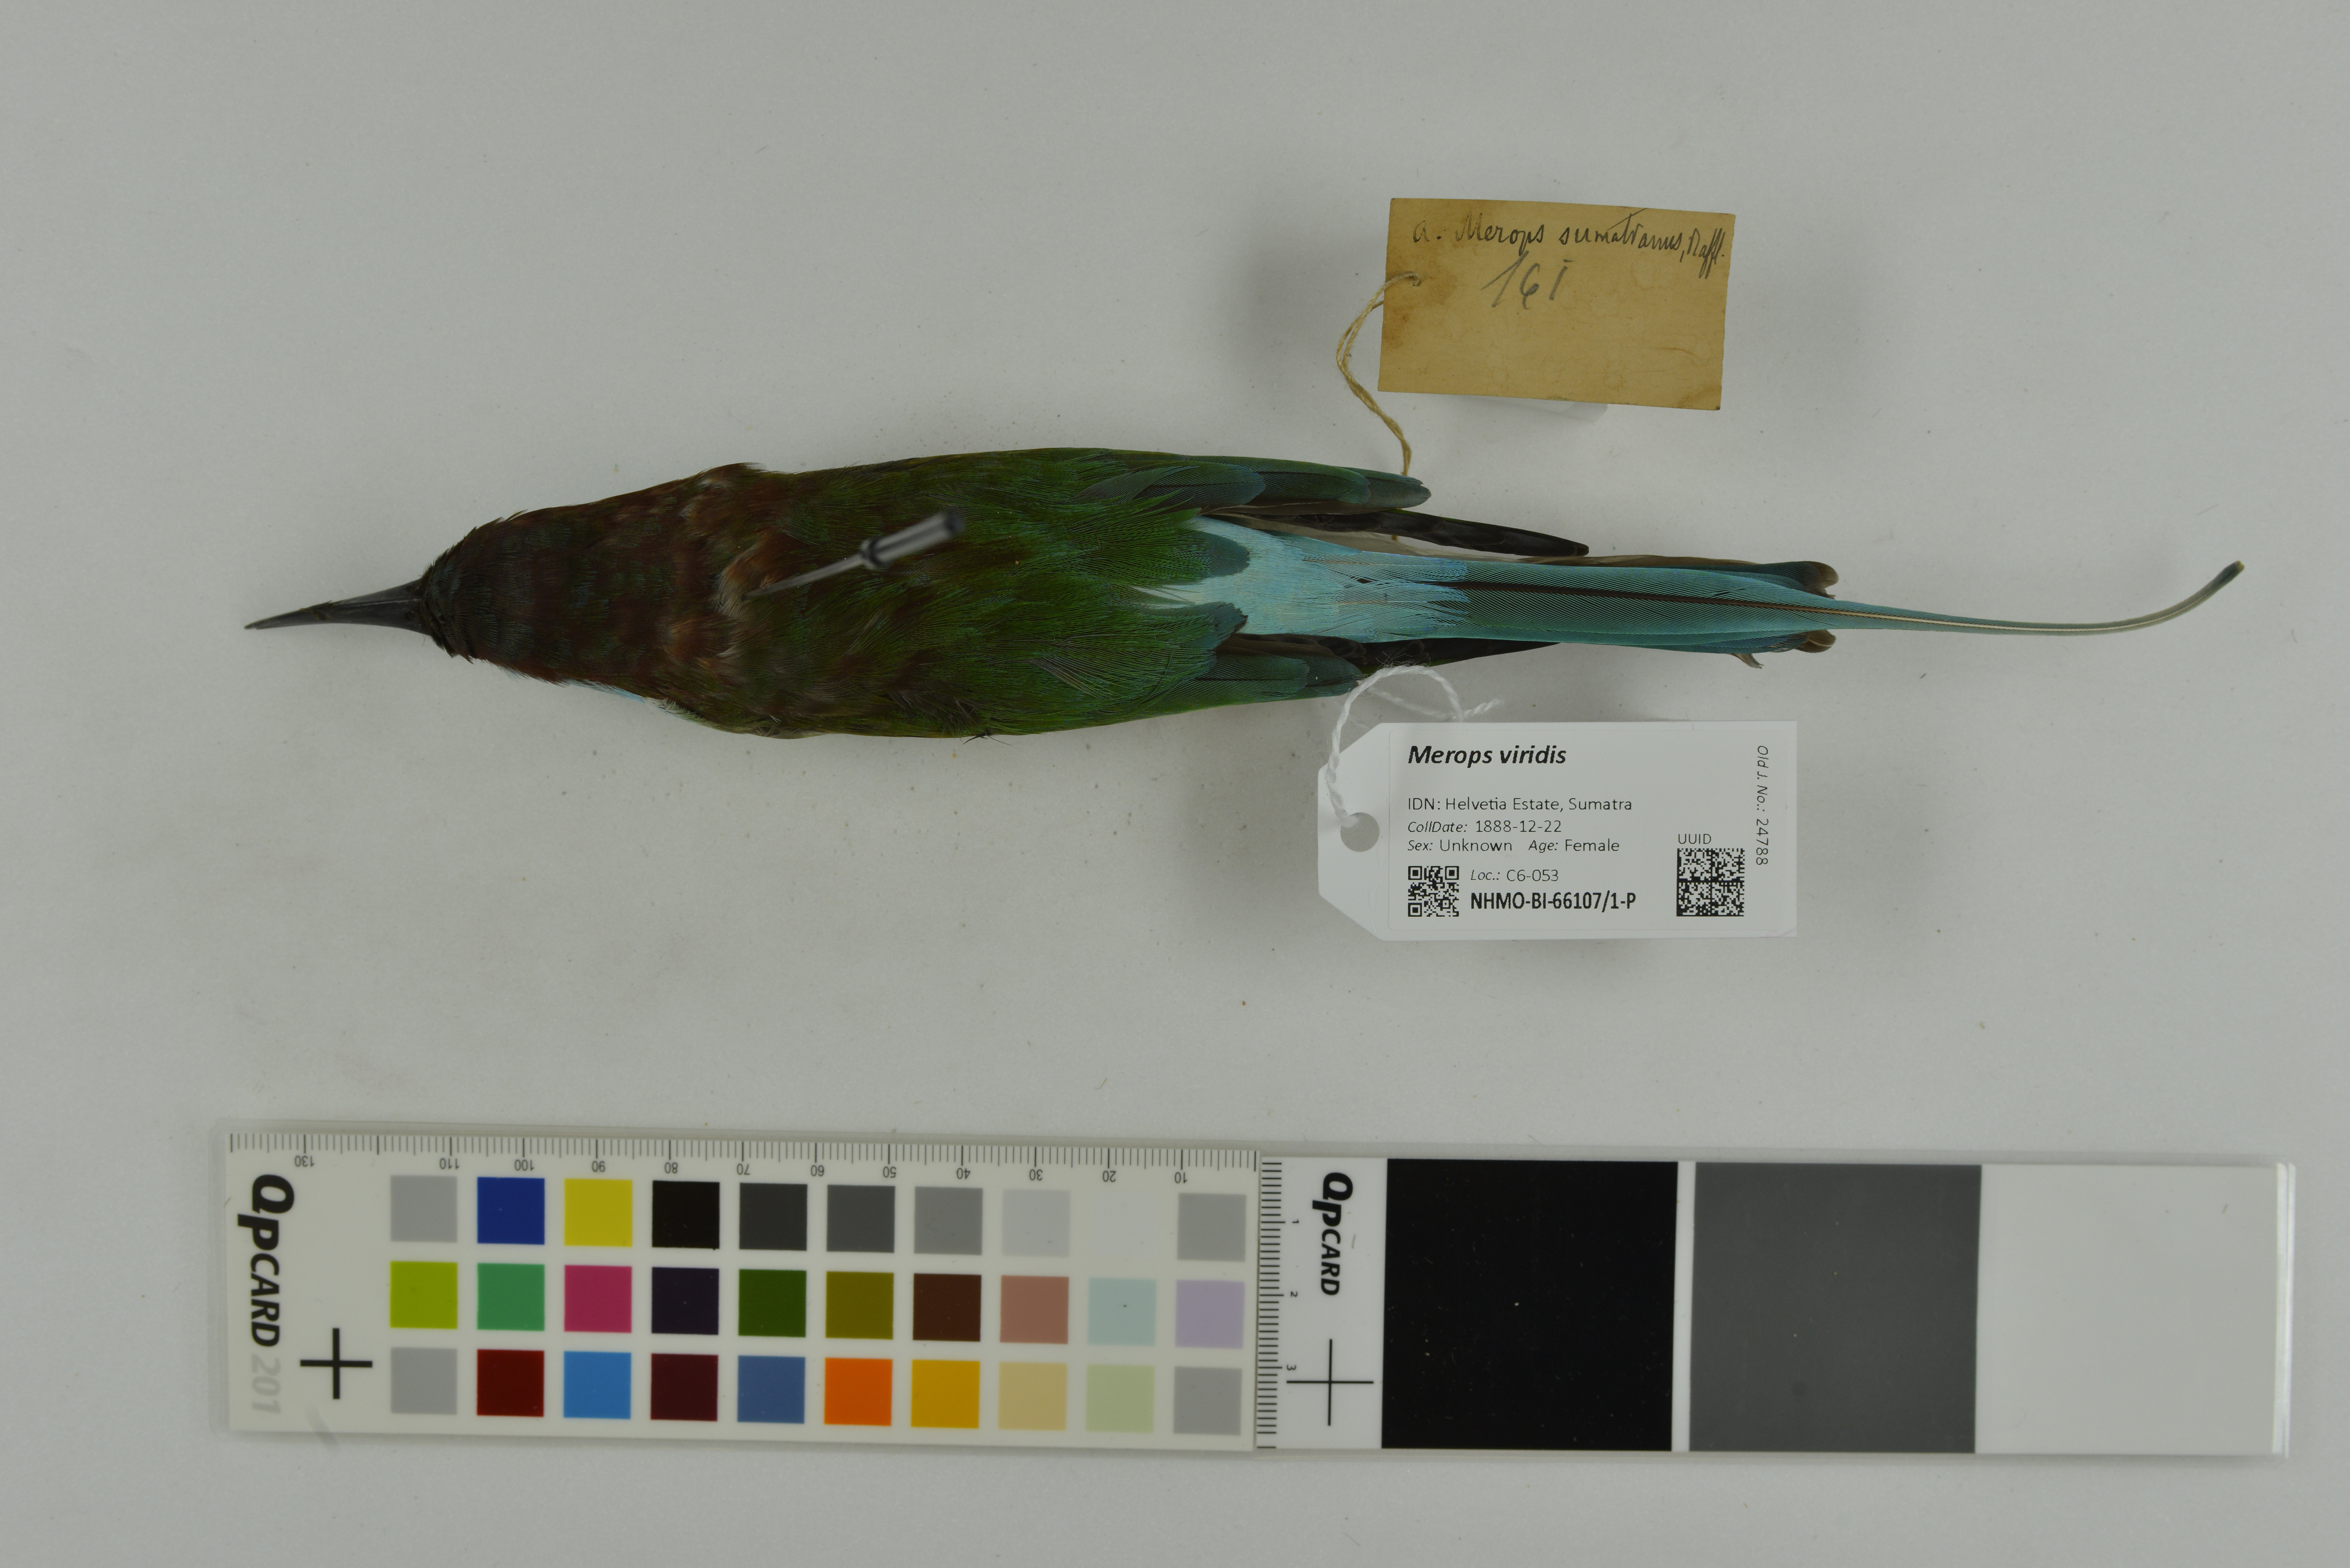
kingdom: Animalia
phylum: Chordata
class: Aves
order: Coraciiformes
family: Meropidae
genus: Merops
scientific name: Merops viridis
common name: Blue-throated bee-eater
